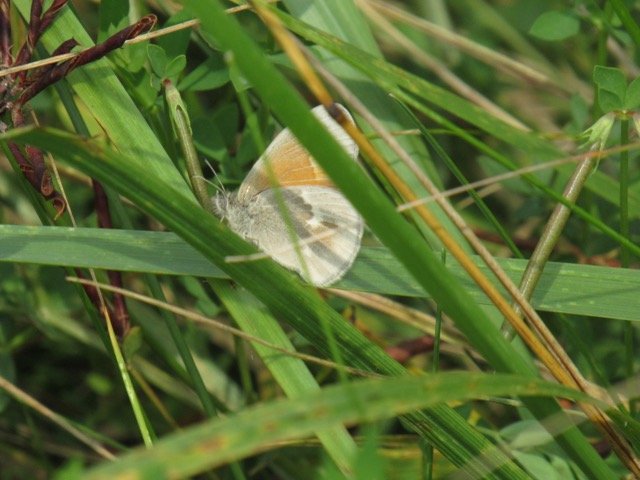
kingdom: Animalia
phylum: Arthropoda
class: Insecta
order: Lepidoptera
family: Nymphalidae
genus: Coenonympha
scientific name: Coenonympha tullia
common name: Large Heath
